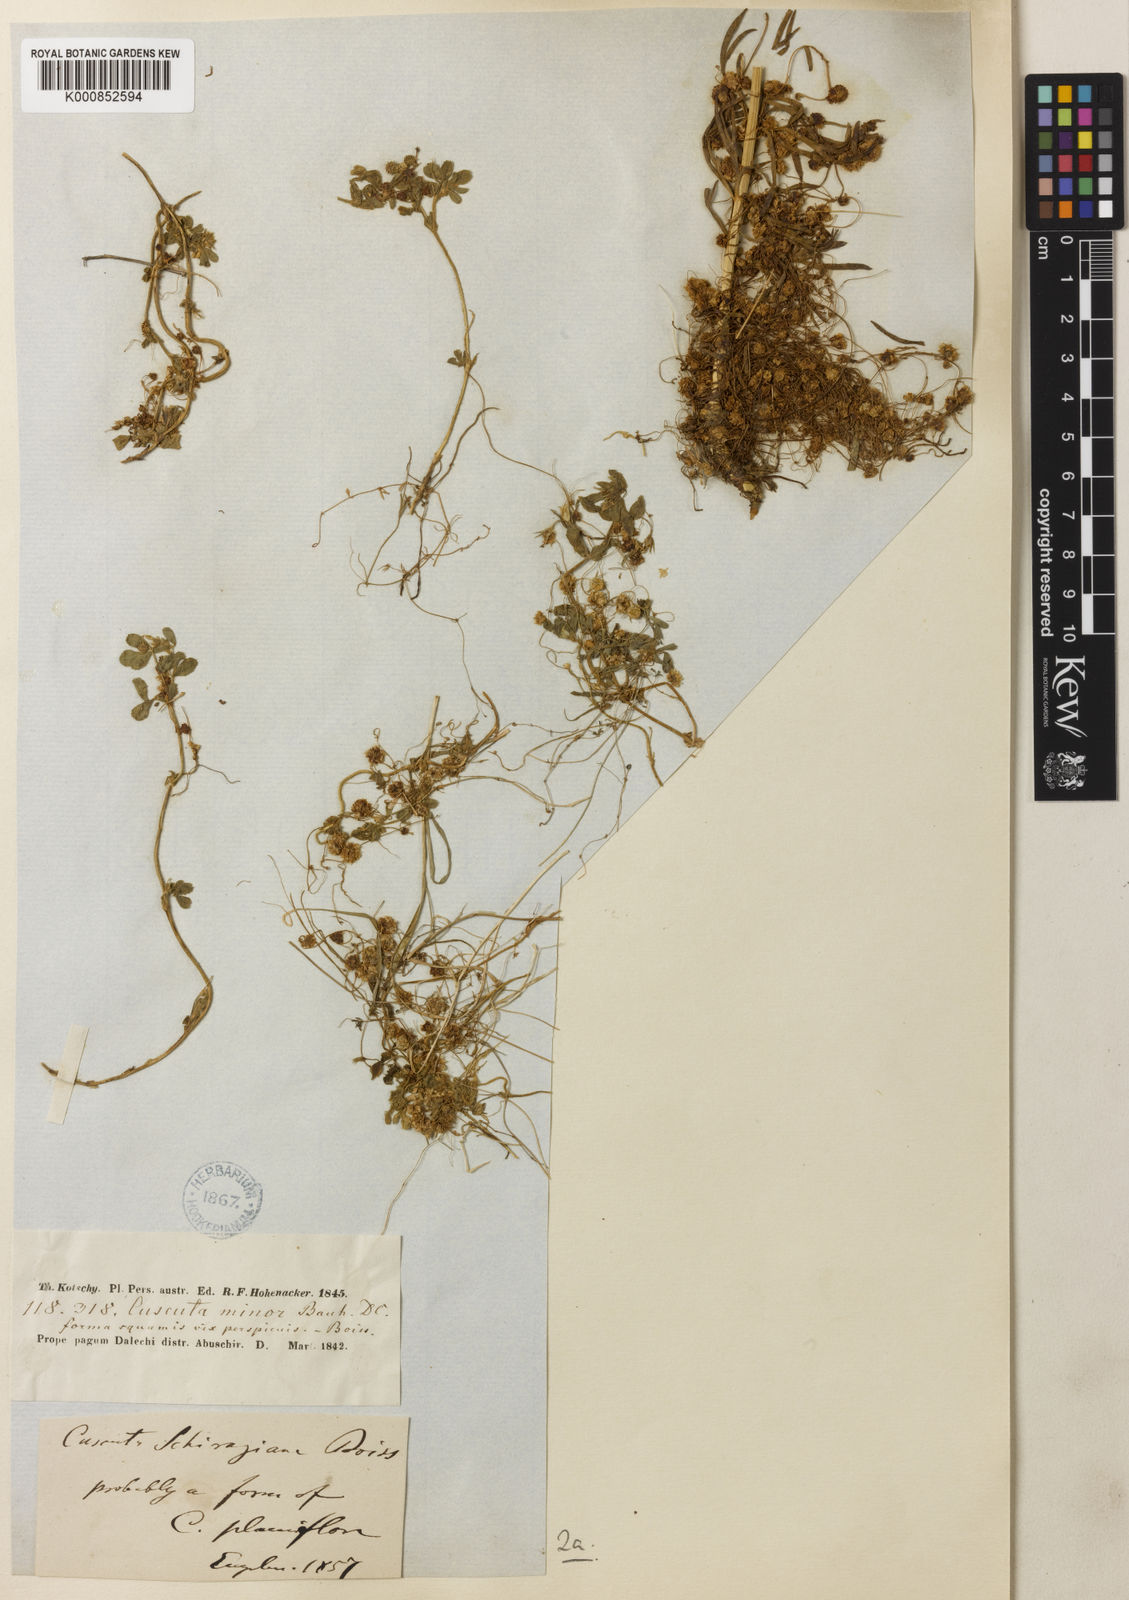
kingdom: Plantae
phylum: Tracheophyta
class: Magnoliopsida
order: Solanales
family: Convolvulaceae
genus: Cuscuta
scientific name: Cuscuta approximata
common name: Alfalfa dodder
